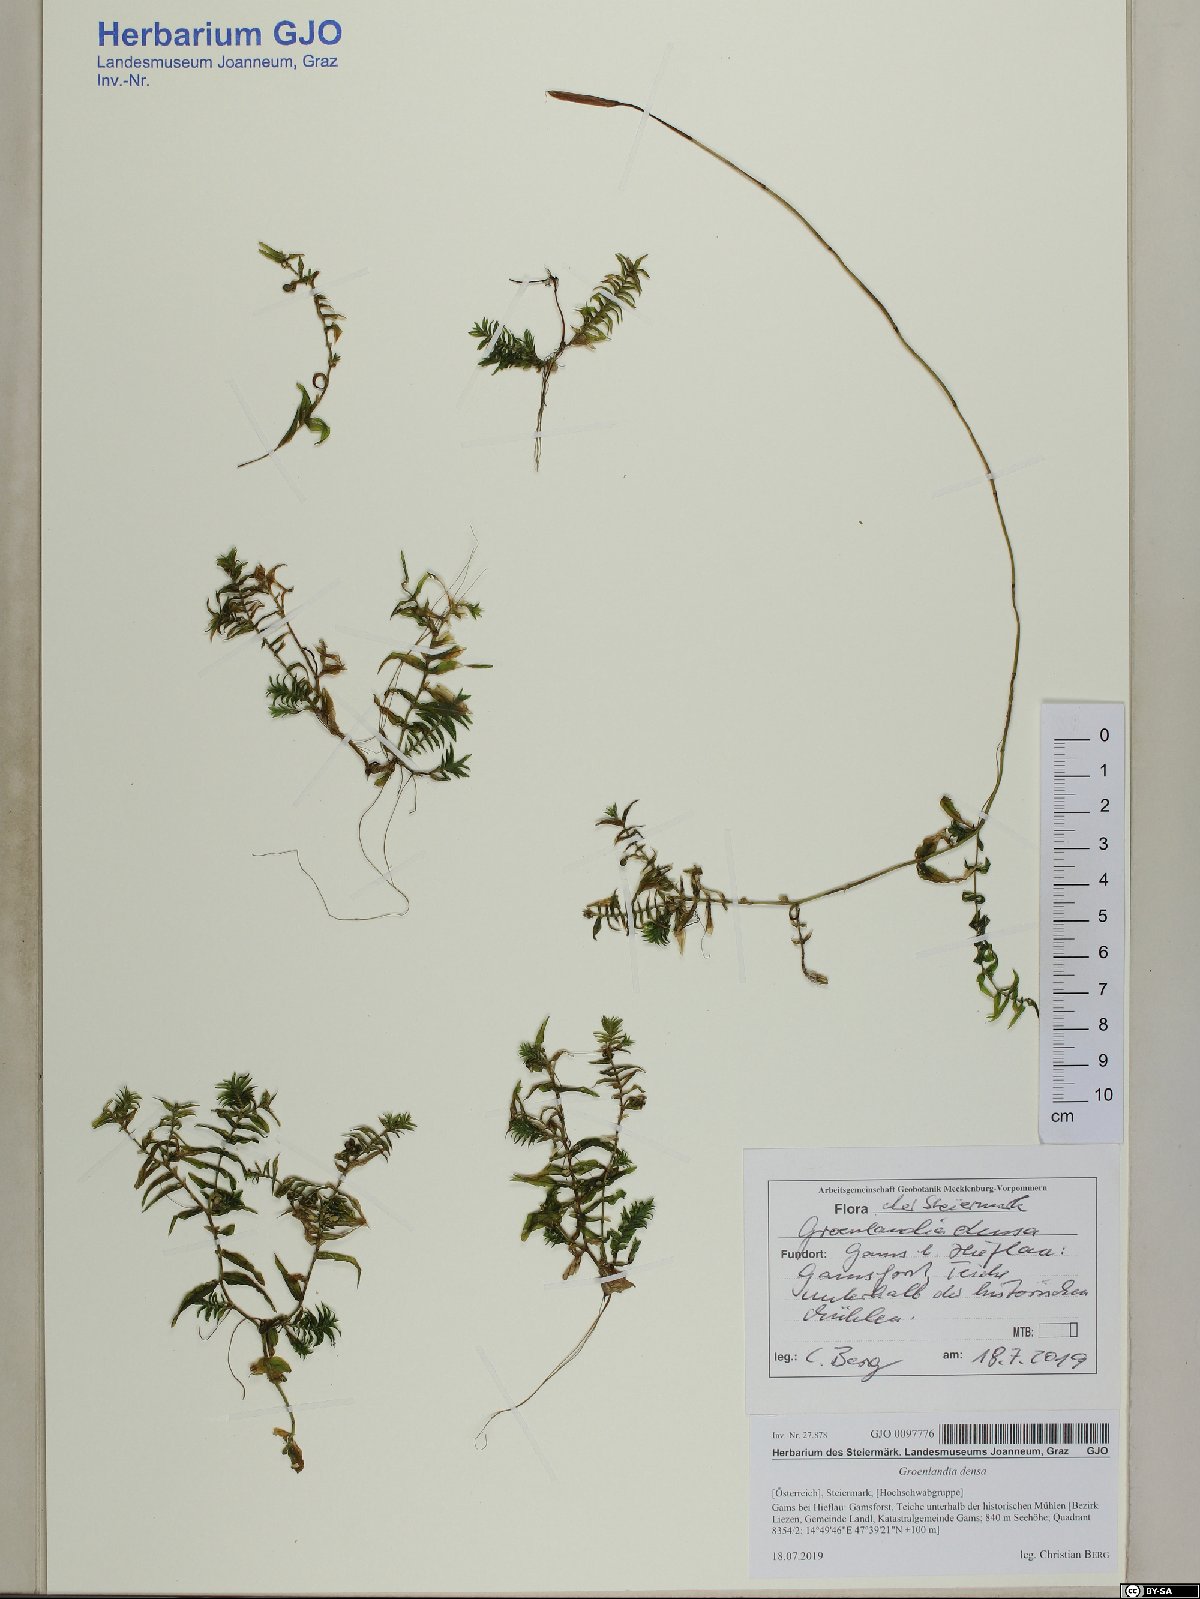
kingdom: Plantae
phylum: Tracheophyta
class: Liliopsida
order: Alismatales
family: Potamogetonaceae
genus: Groenlandia
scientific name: Groenlandia densa
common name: Opposite-leaved pondweed
